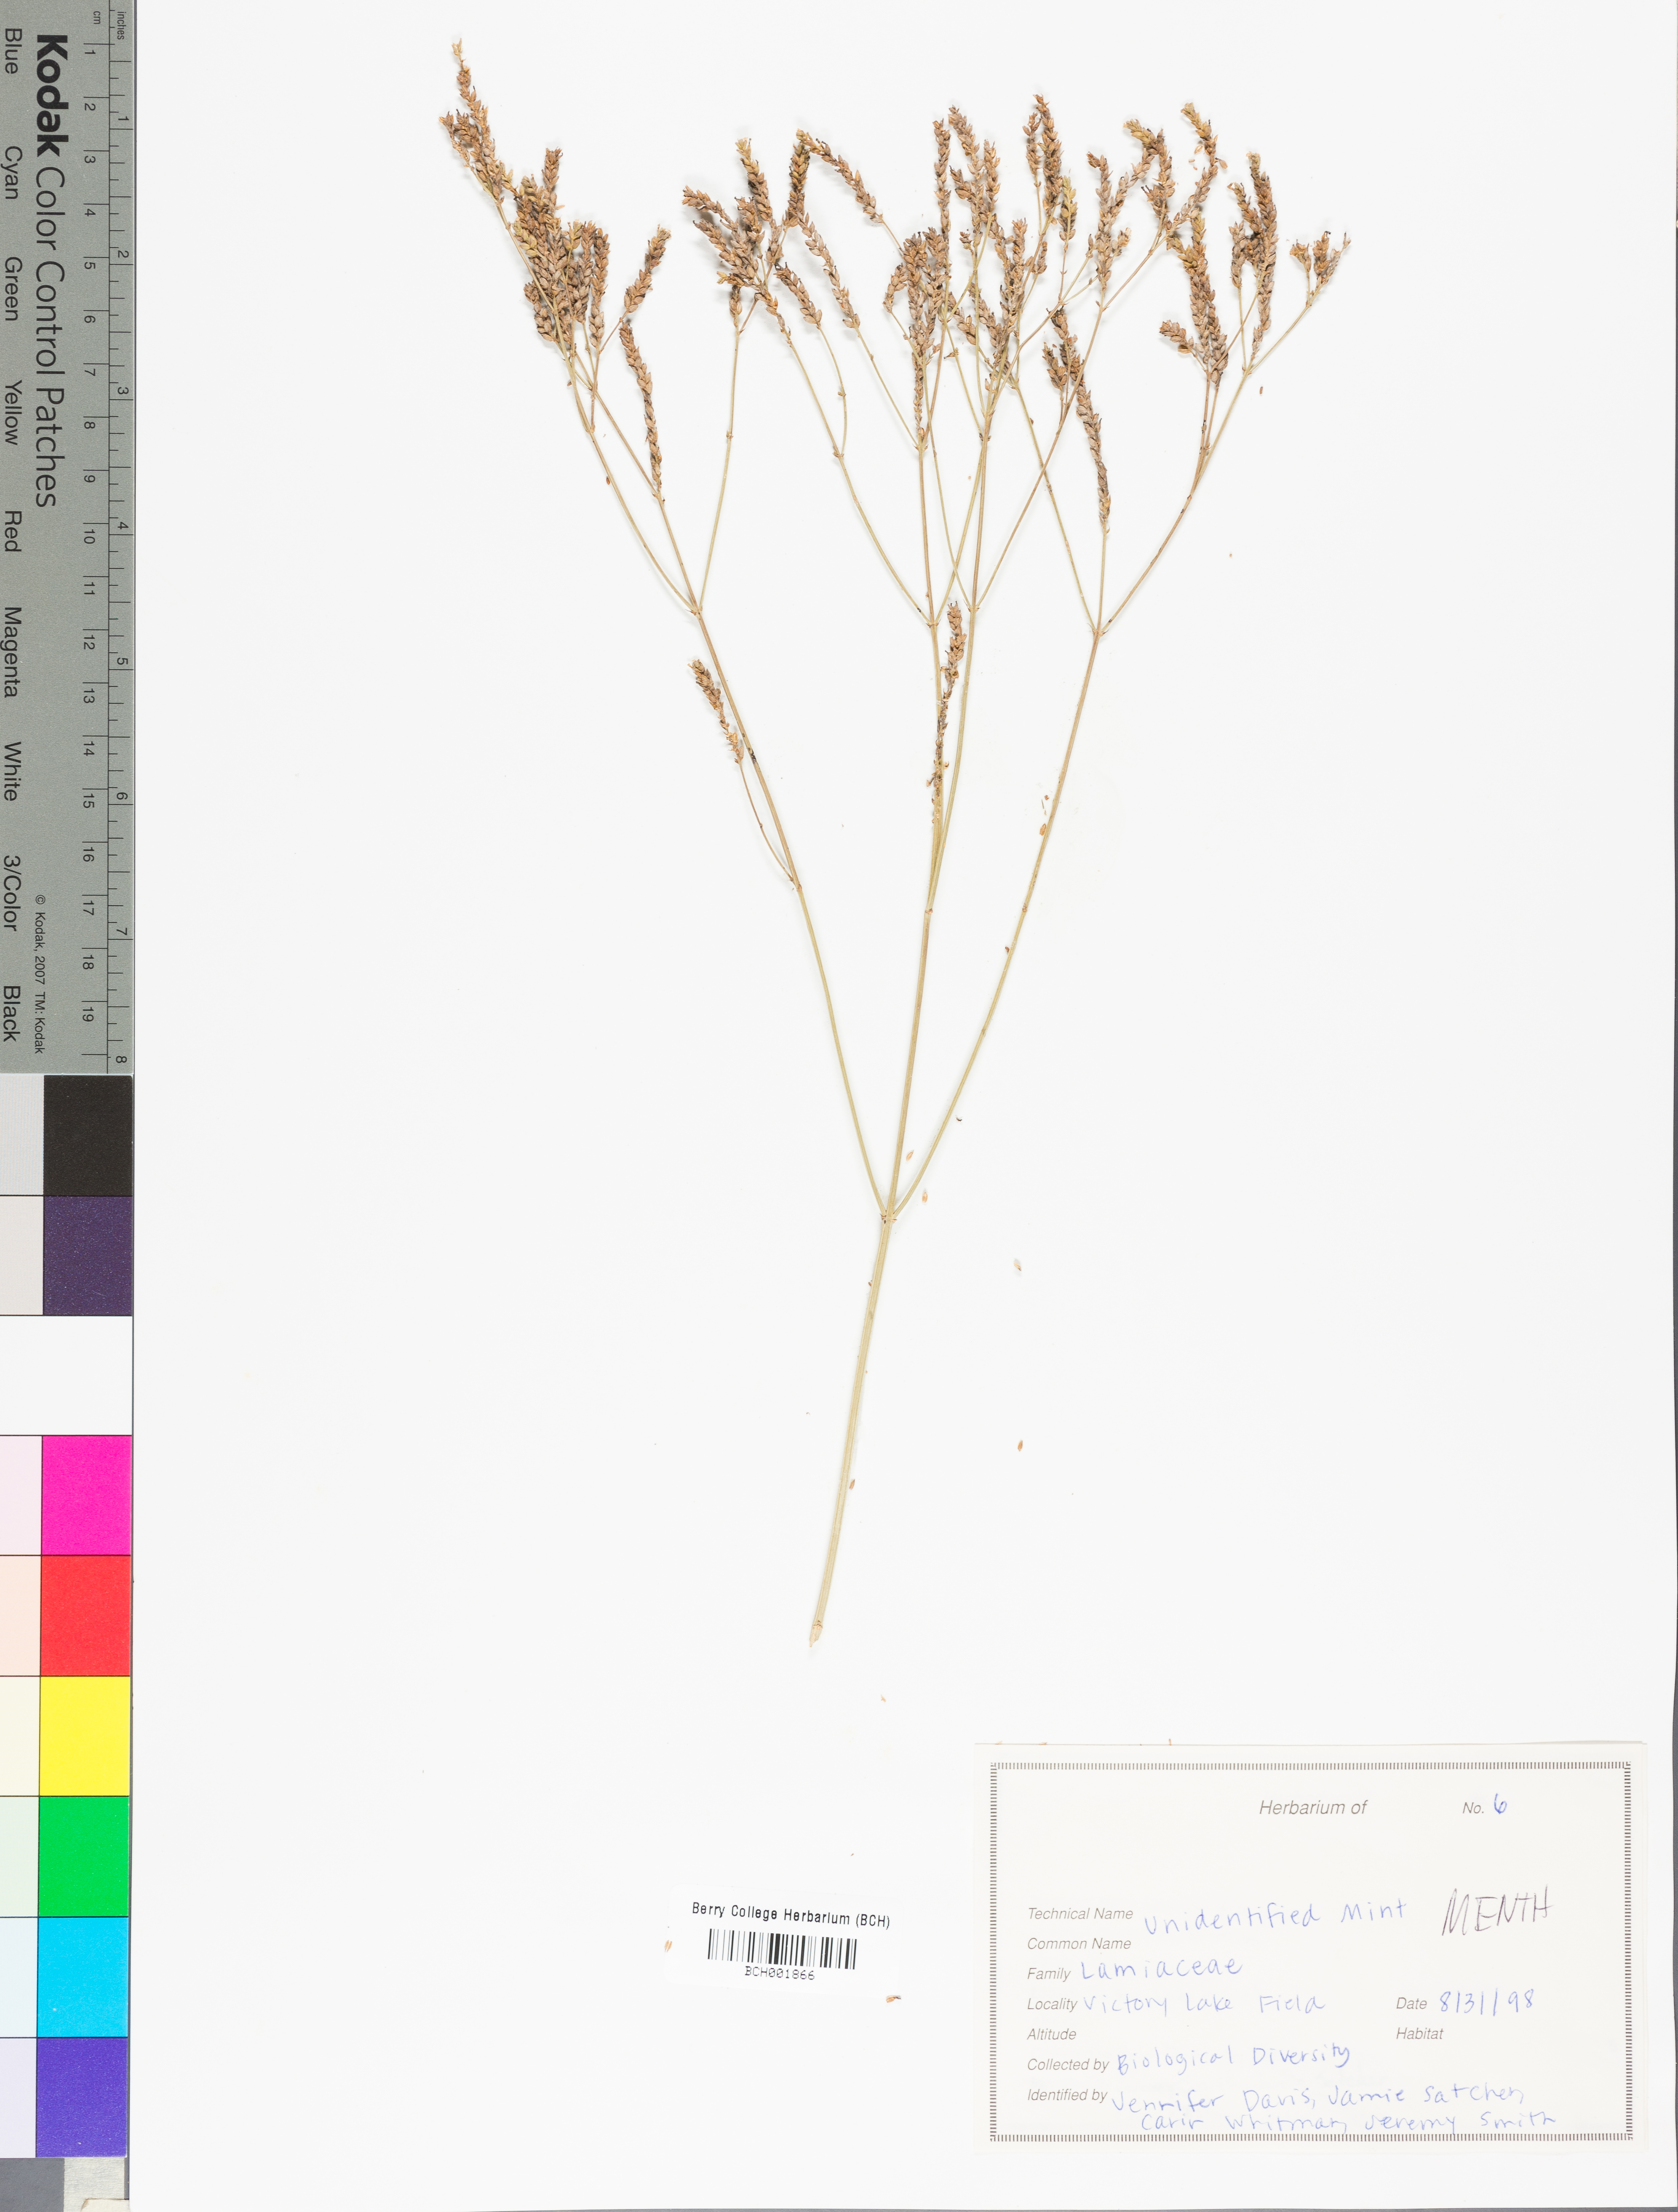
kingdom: Plantae
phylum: Tracheophyta
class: Magnoliopsida
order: Lamiales
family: Lamiaceae
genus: Mentha
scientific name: Mentha
